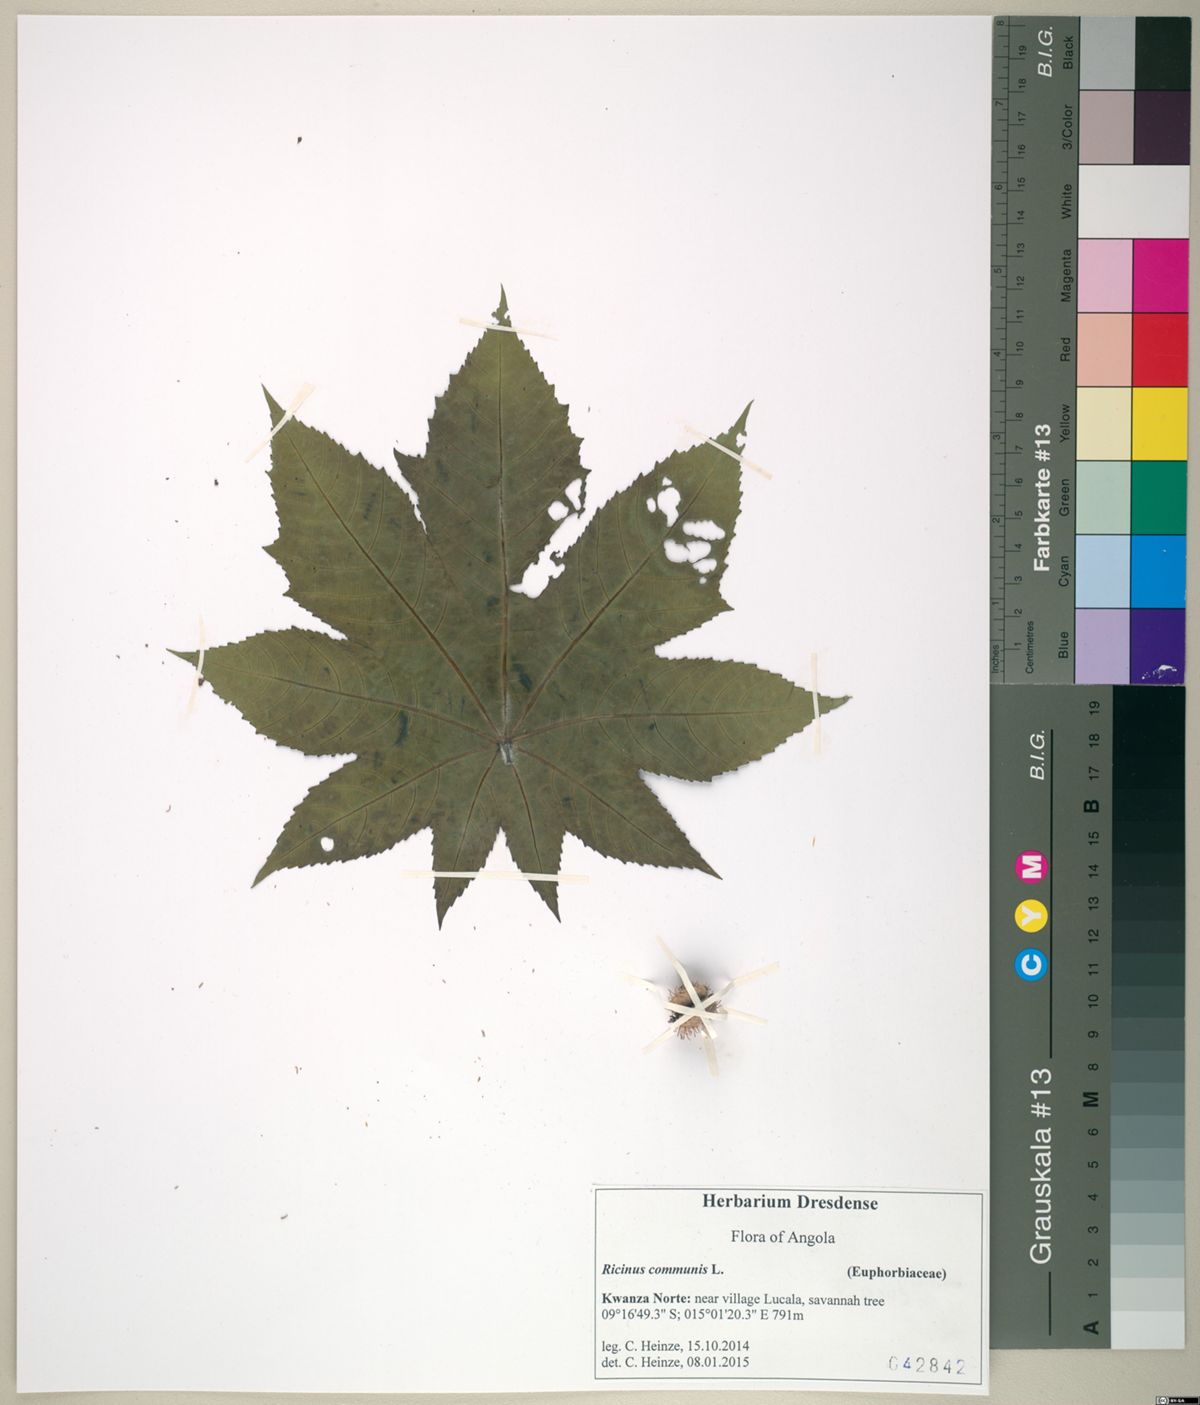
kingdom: Plantae
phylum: Tracheophyta
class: Magnoliopsida
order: Malpighiales
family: Euphorbiaceae
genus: Ricinus
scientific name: Ricinus communis
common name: Castor-oil-plant
